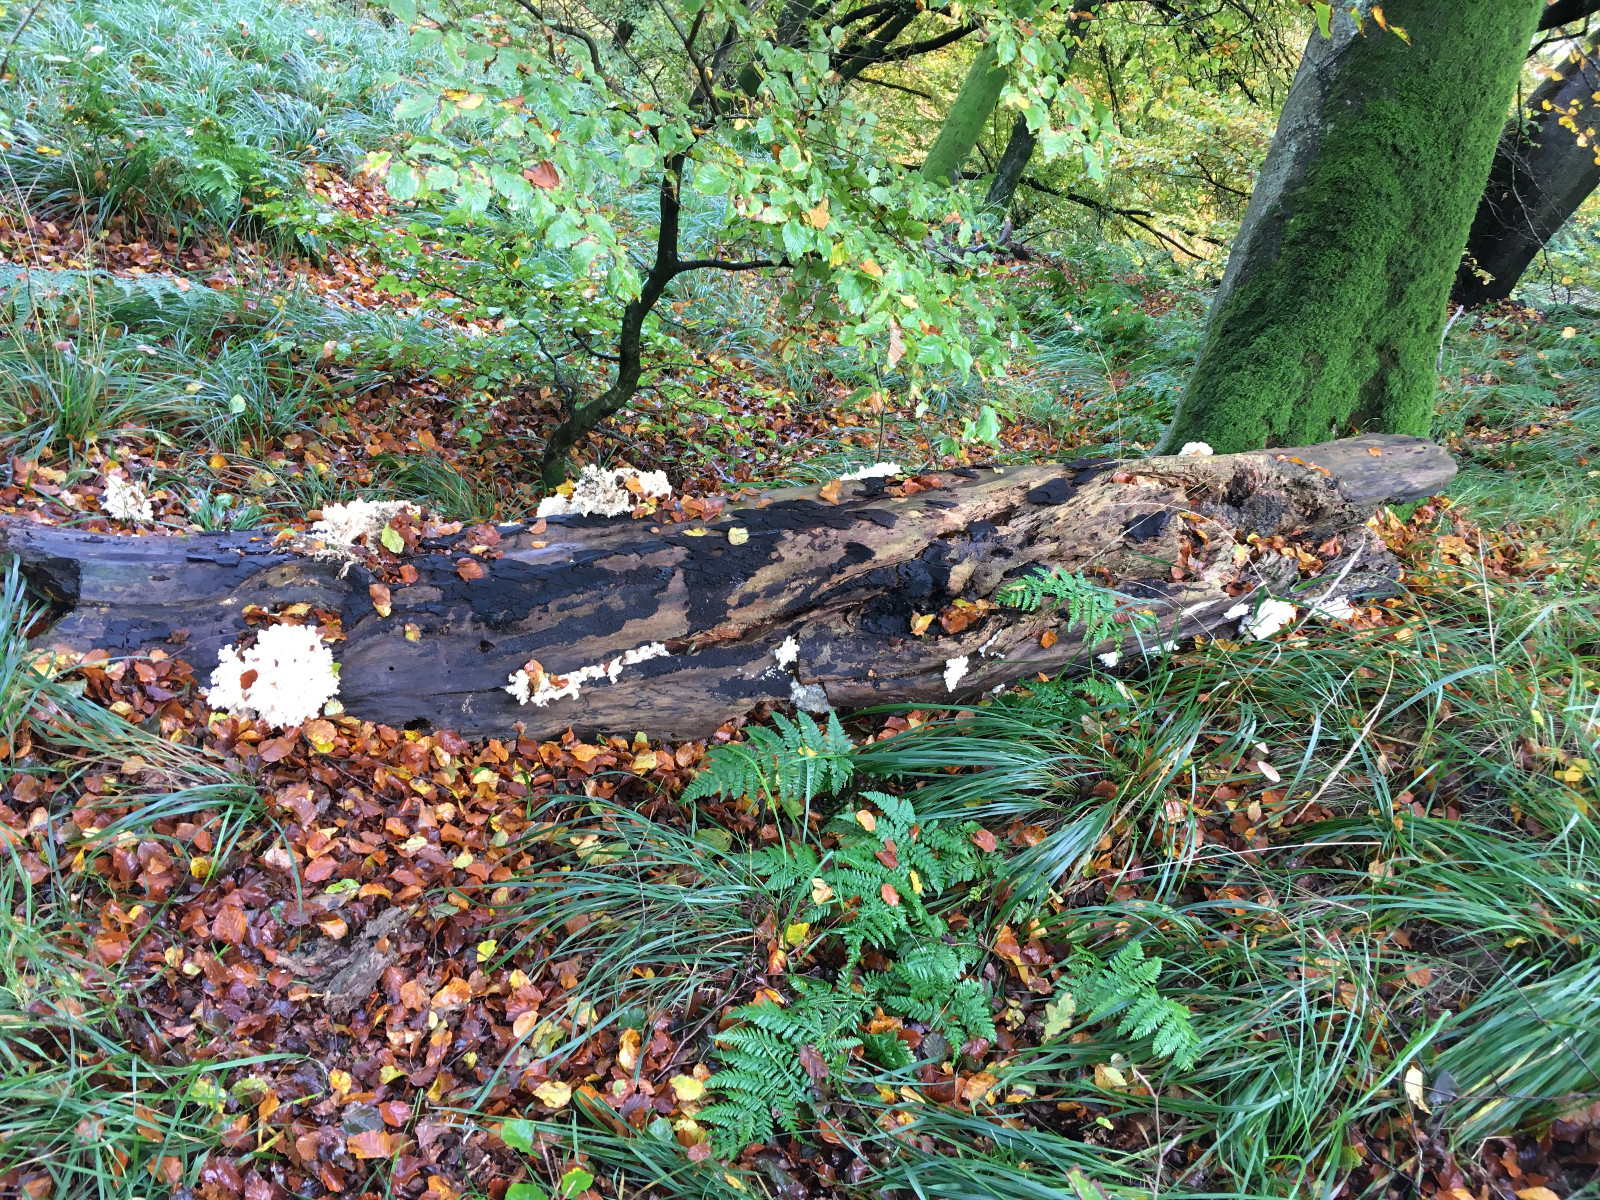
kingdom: Fungi
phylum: Basidiomycota
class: Agaricomycetes
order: Russulales
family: Hericiaceae
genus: Hericium
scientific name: Hericium coralloides
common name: koralpigsvamp
